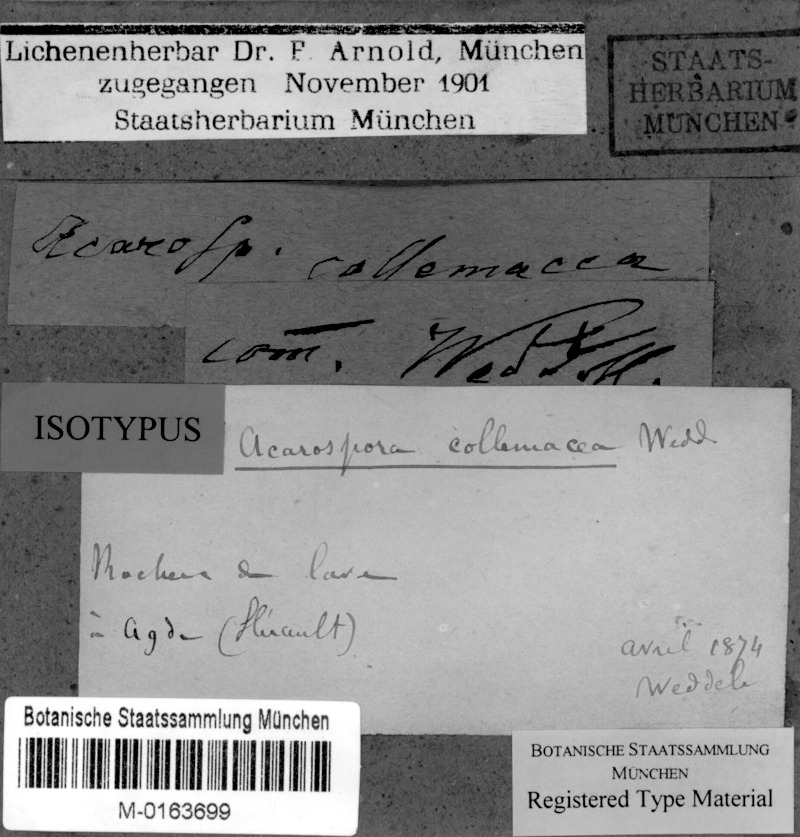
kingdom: Fungi
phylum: Ascomycota
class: Lichinomycetes
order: Lichinales
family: Peltulaceae
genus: Peltula
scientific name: Peltula obscurans
